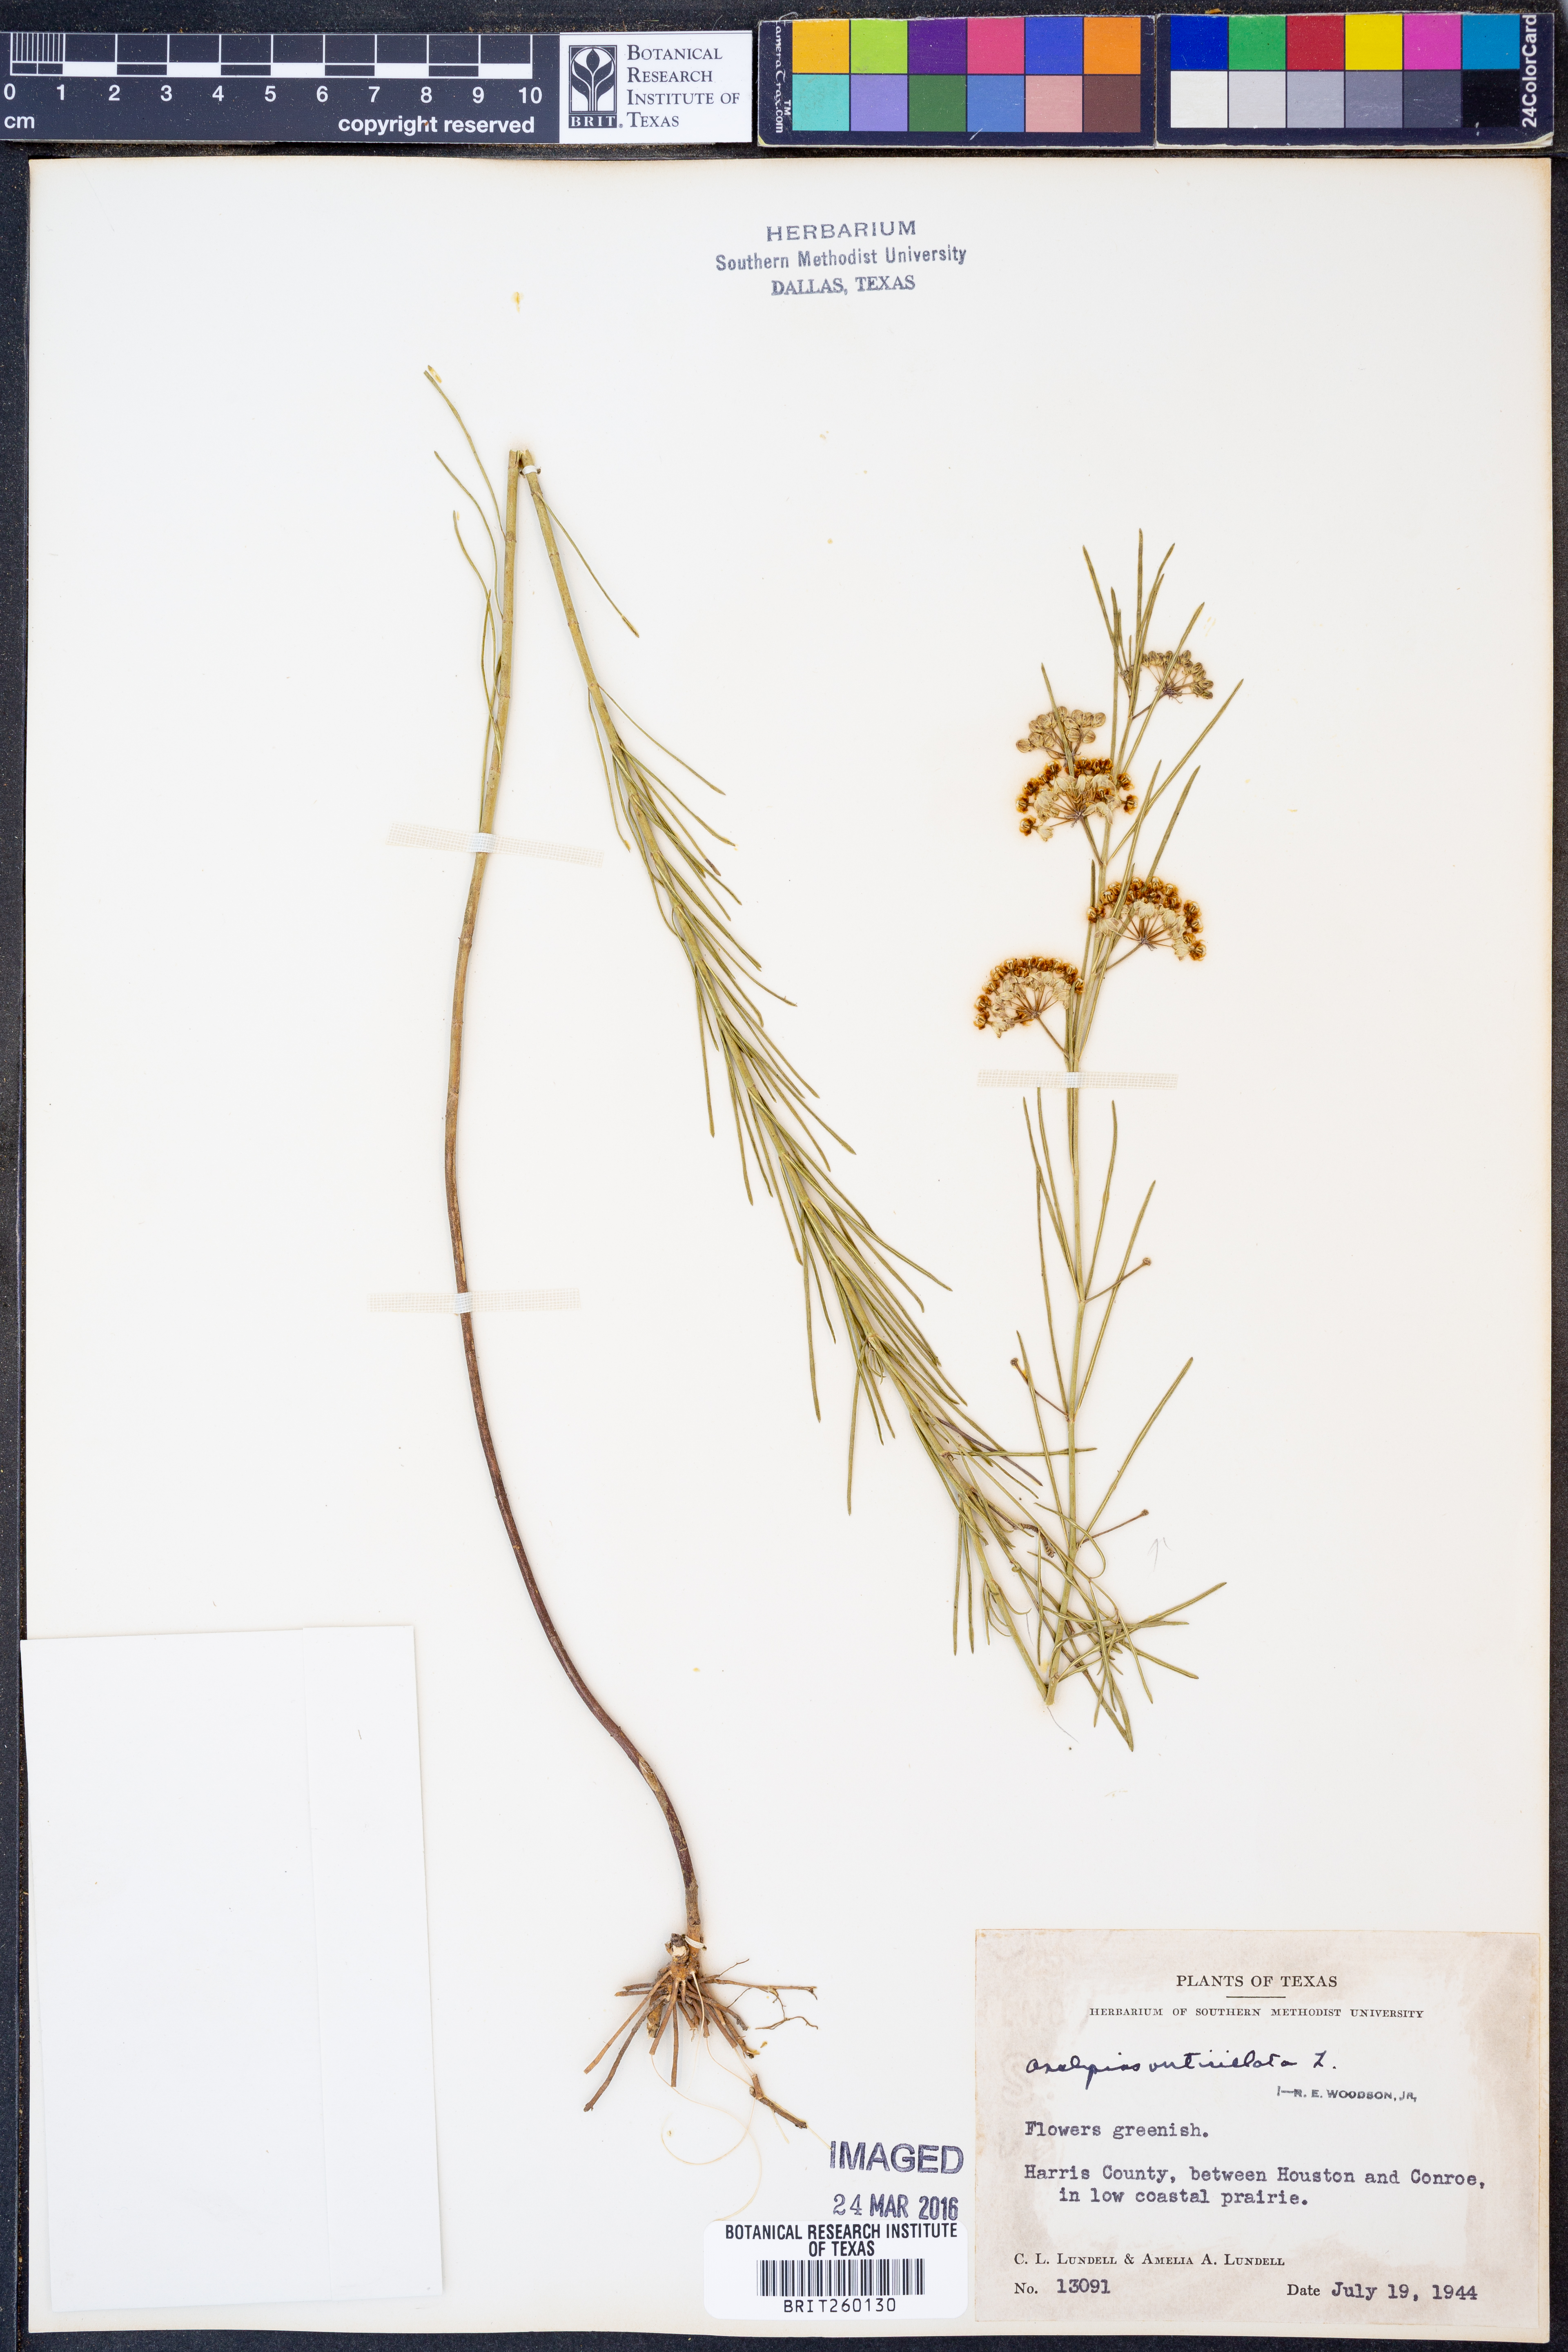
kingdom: Plantae
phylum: Tracheophyta
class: Magnoliopsida
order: Gentianales
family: Apocynaceae
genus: Asclepias
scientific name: Asclepias verticillata
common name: Eastern whorled milkweed
